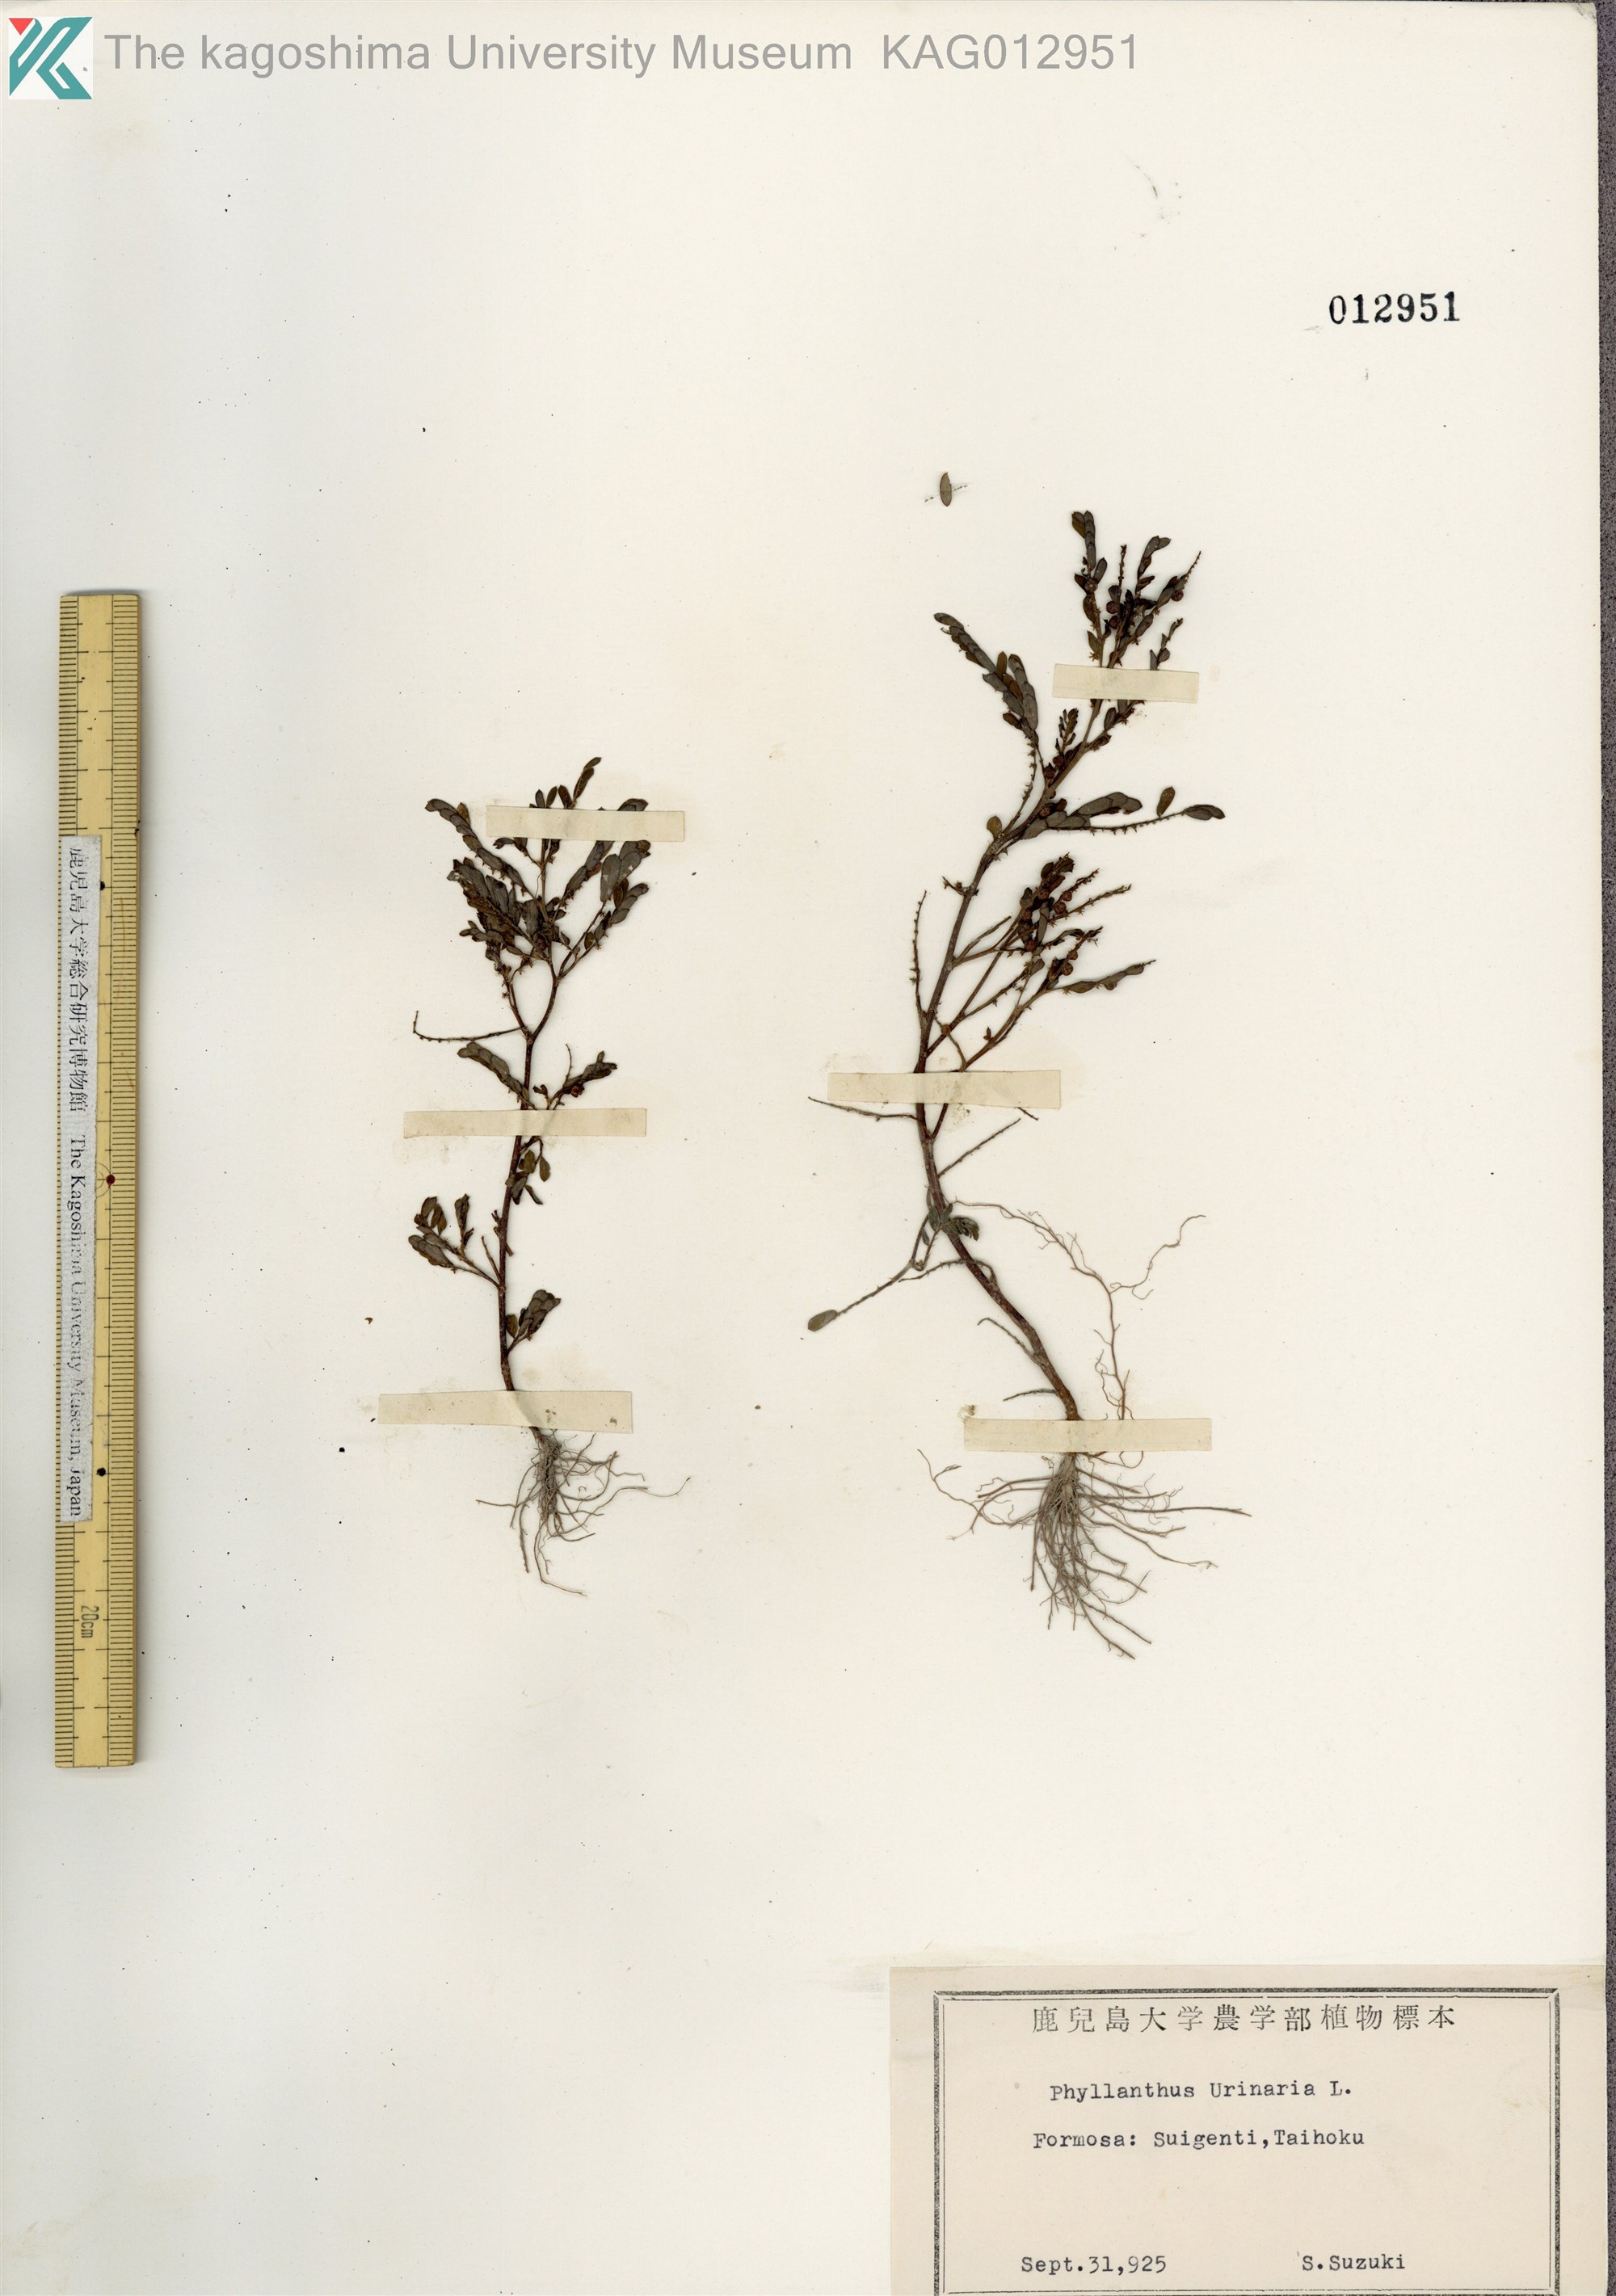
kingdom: Plantae
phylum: Tracheophyta
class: Magnoliopsida
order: Malpighiales
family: Phyllanthaceae
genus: Phyllanthus
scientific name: Phyllanthus urinaria
